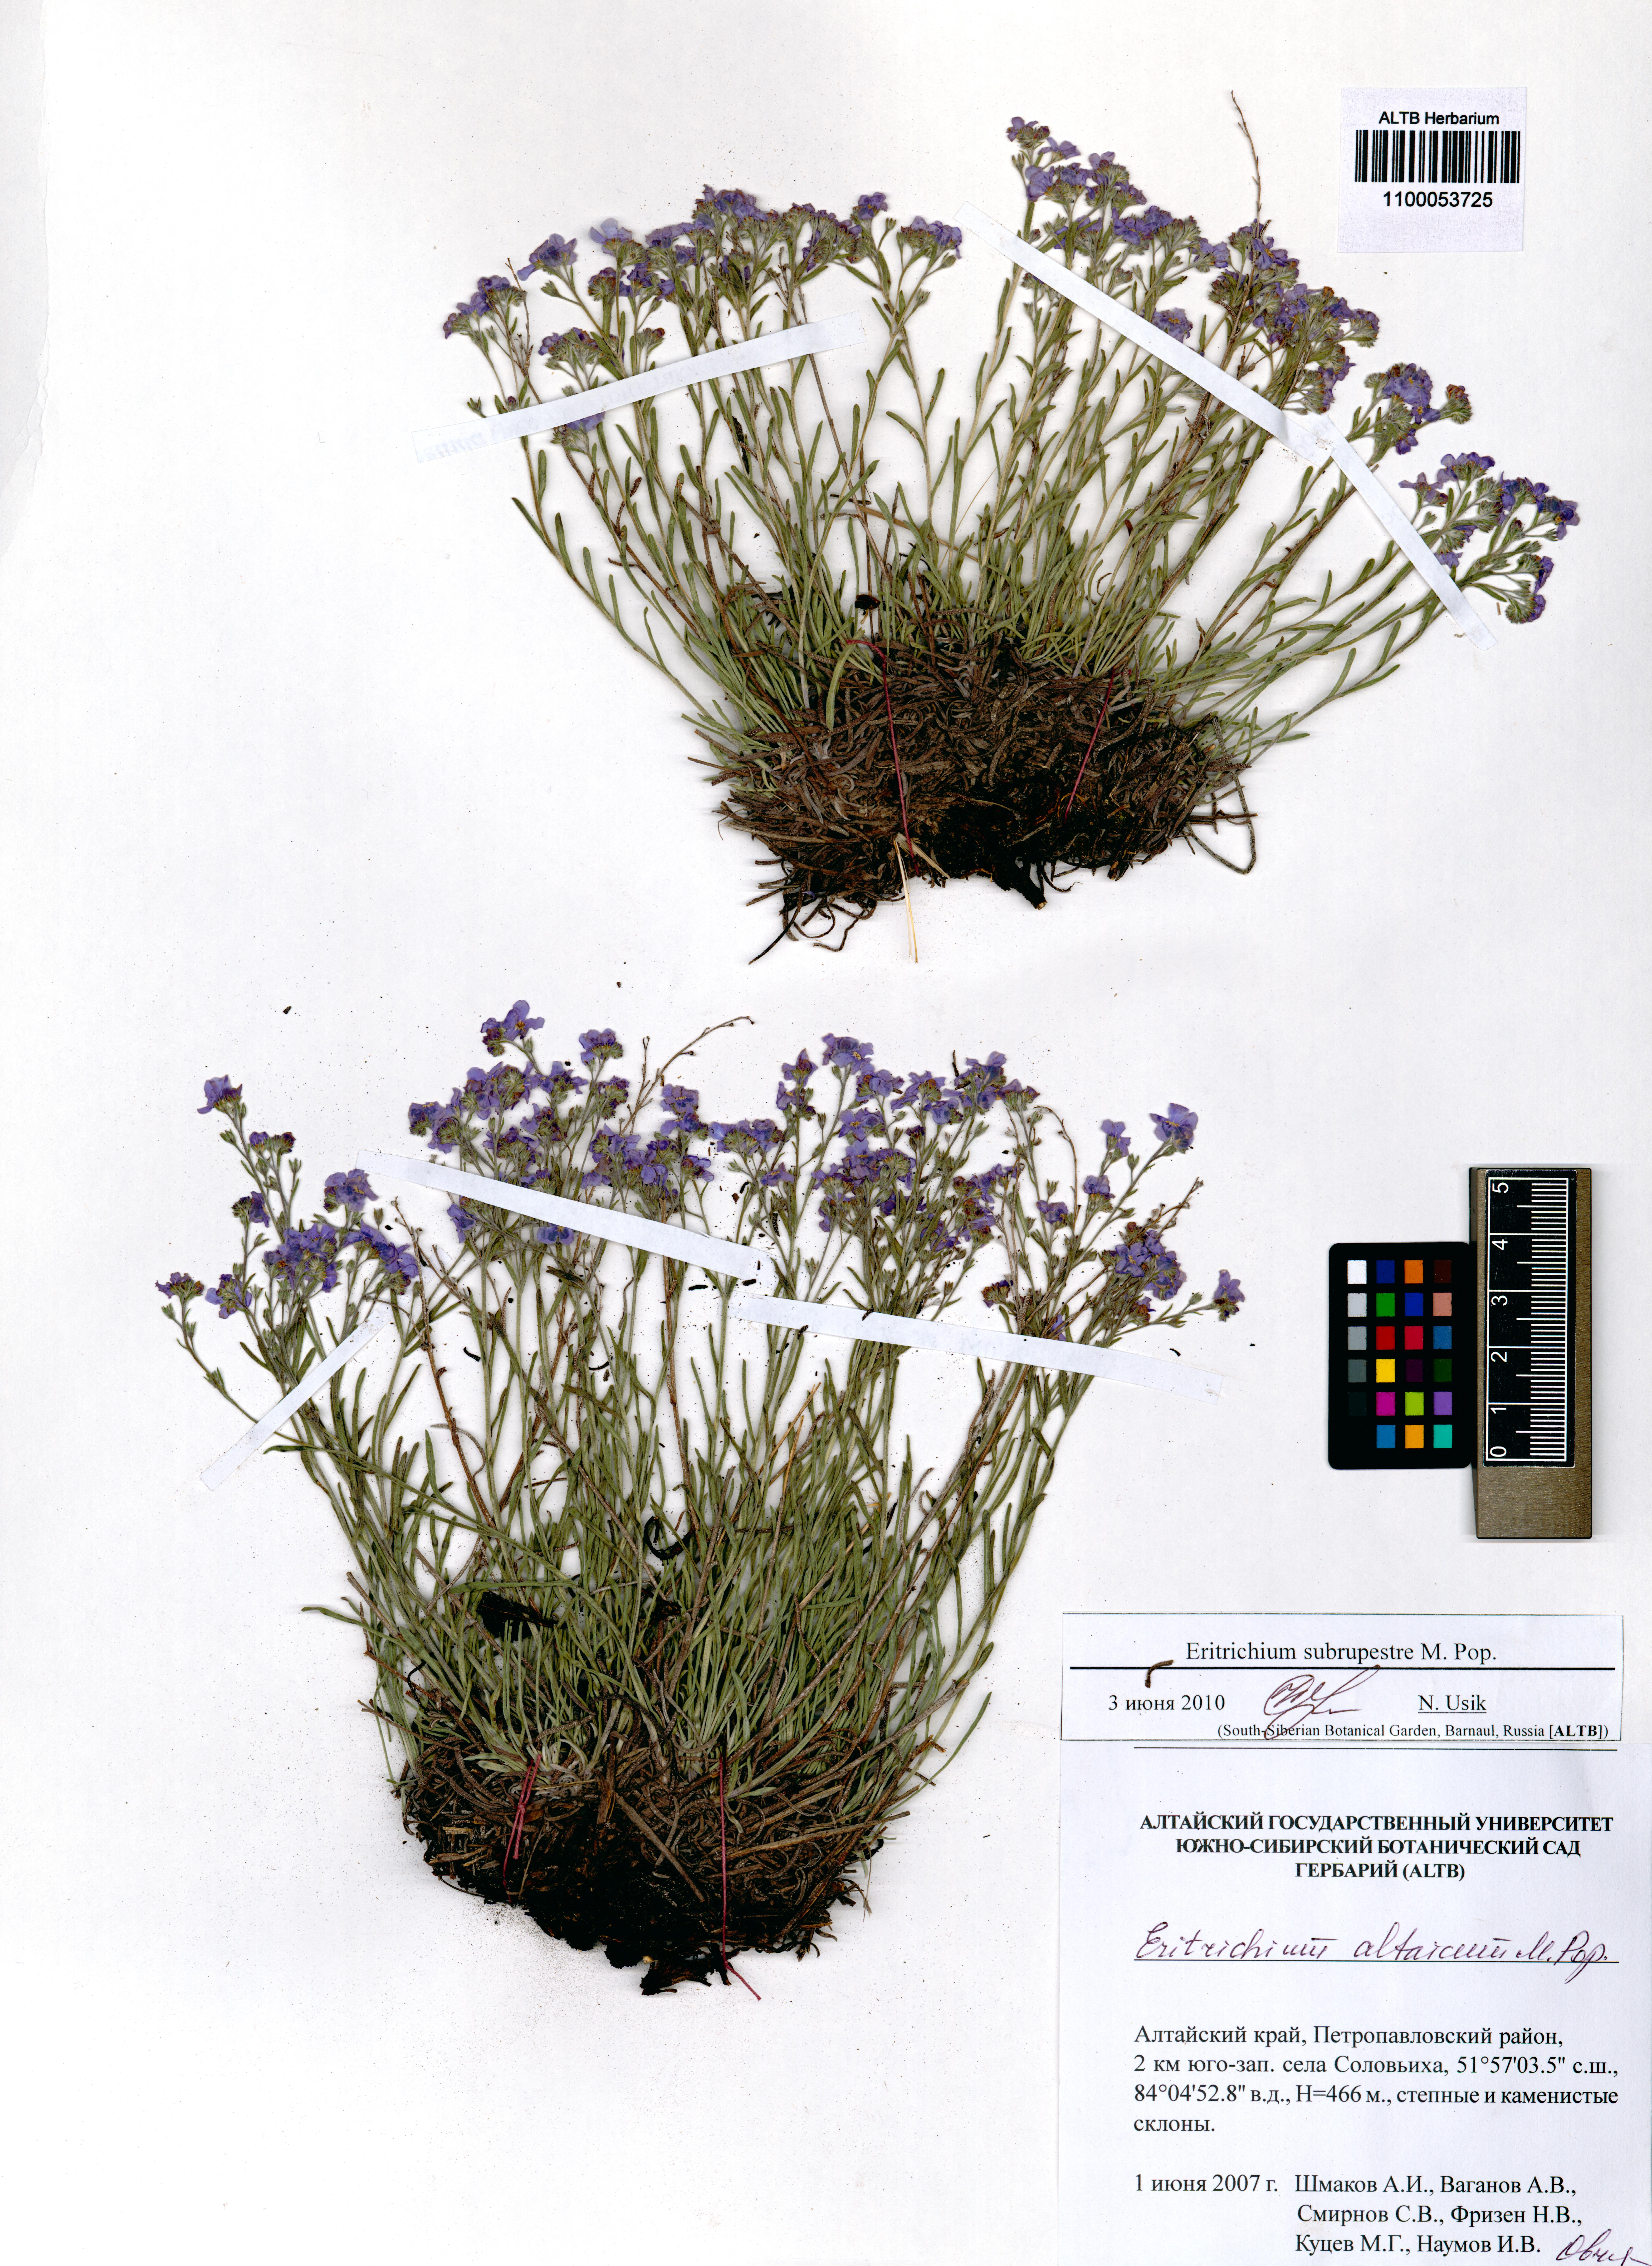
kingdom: Plantae
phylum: Tracheophyta
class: Magnoliopsida
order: Boraginales
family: Boraginaceae
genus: Eritrichium
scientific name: Eritrichium pauciflorum
